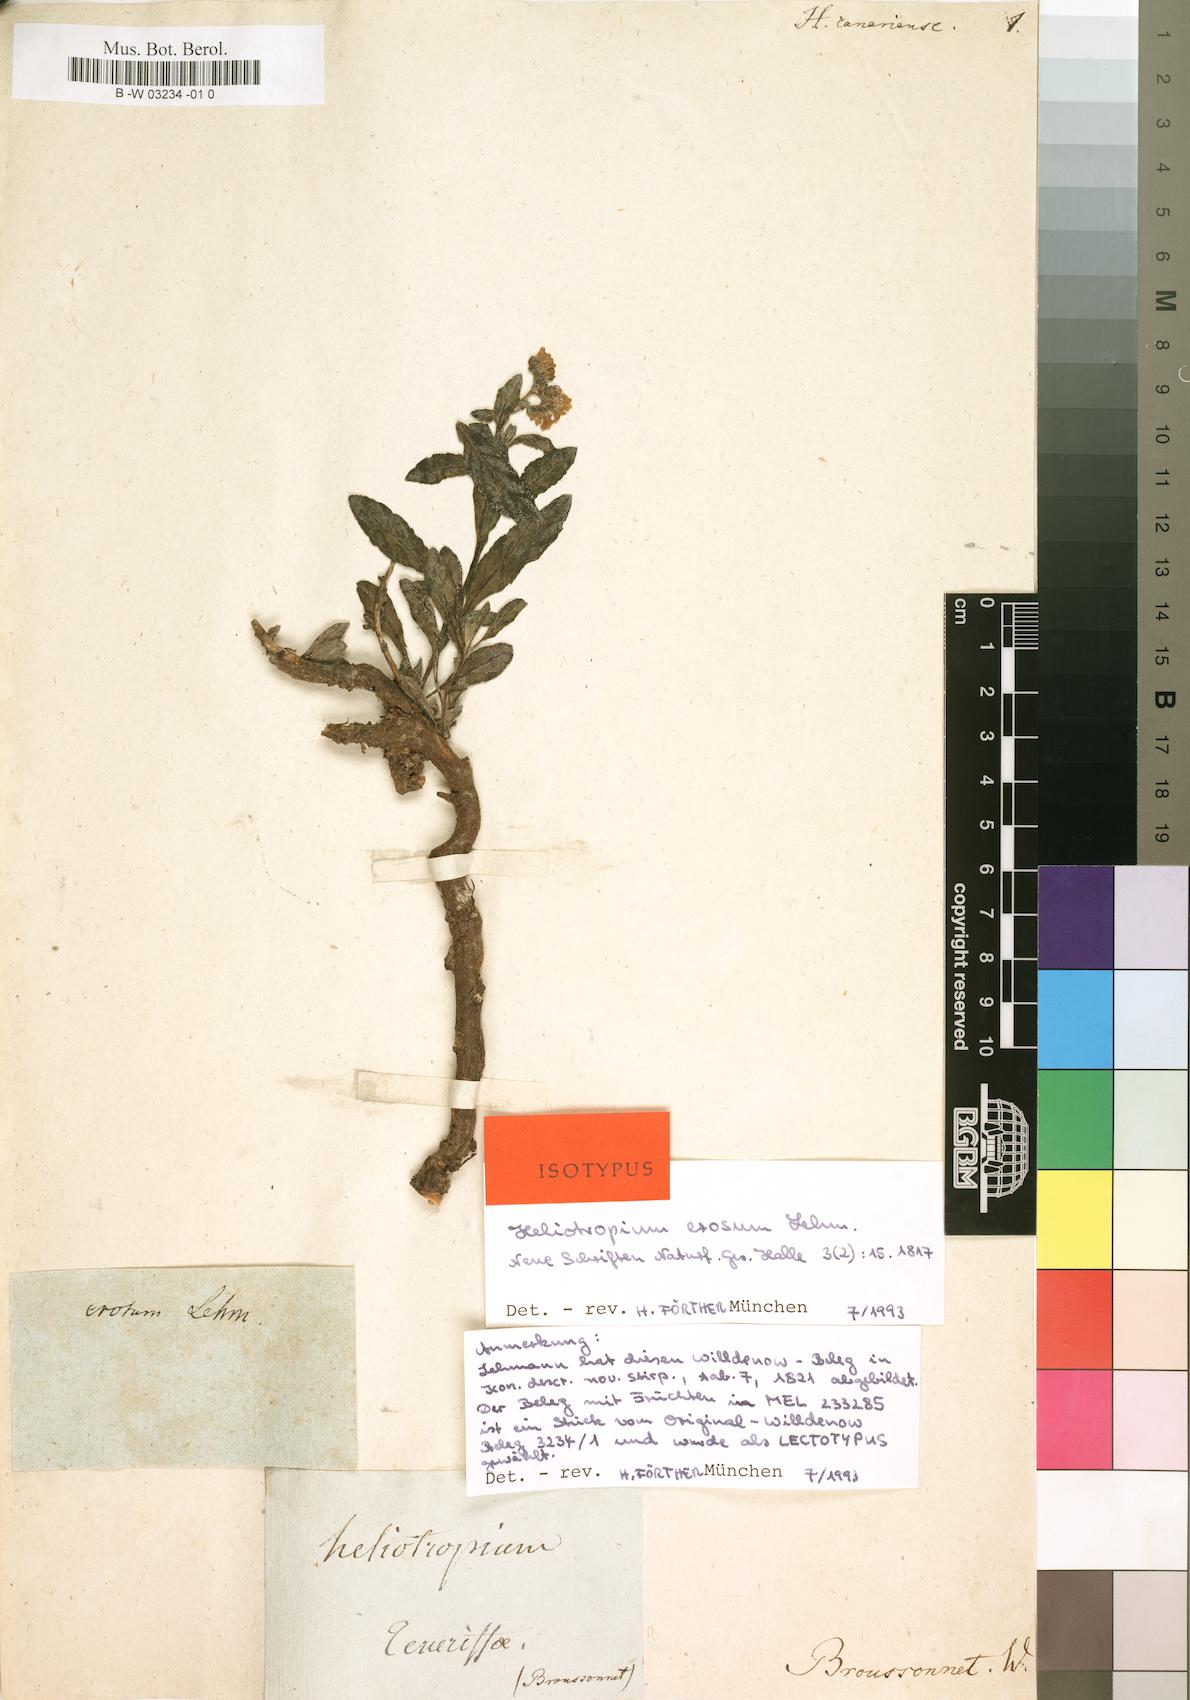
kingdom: Plantae
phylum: Tracheophyta
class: Magnoliopsida
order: Boraginales
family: Heliotropiaceae
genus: Heliotropium
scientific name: Heliotropium crispum
